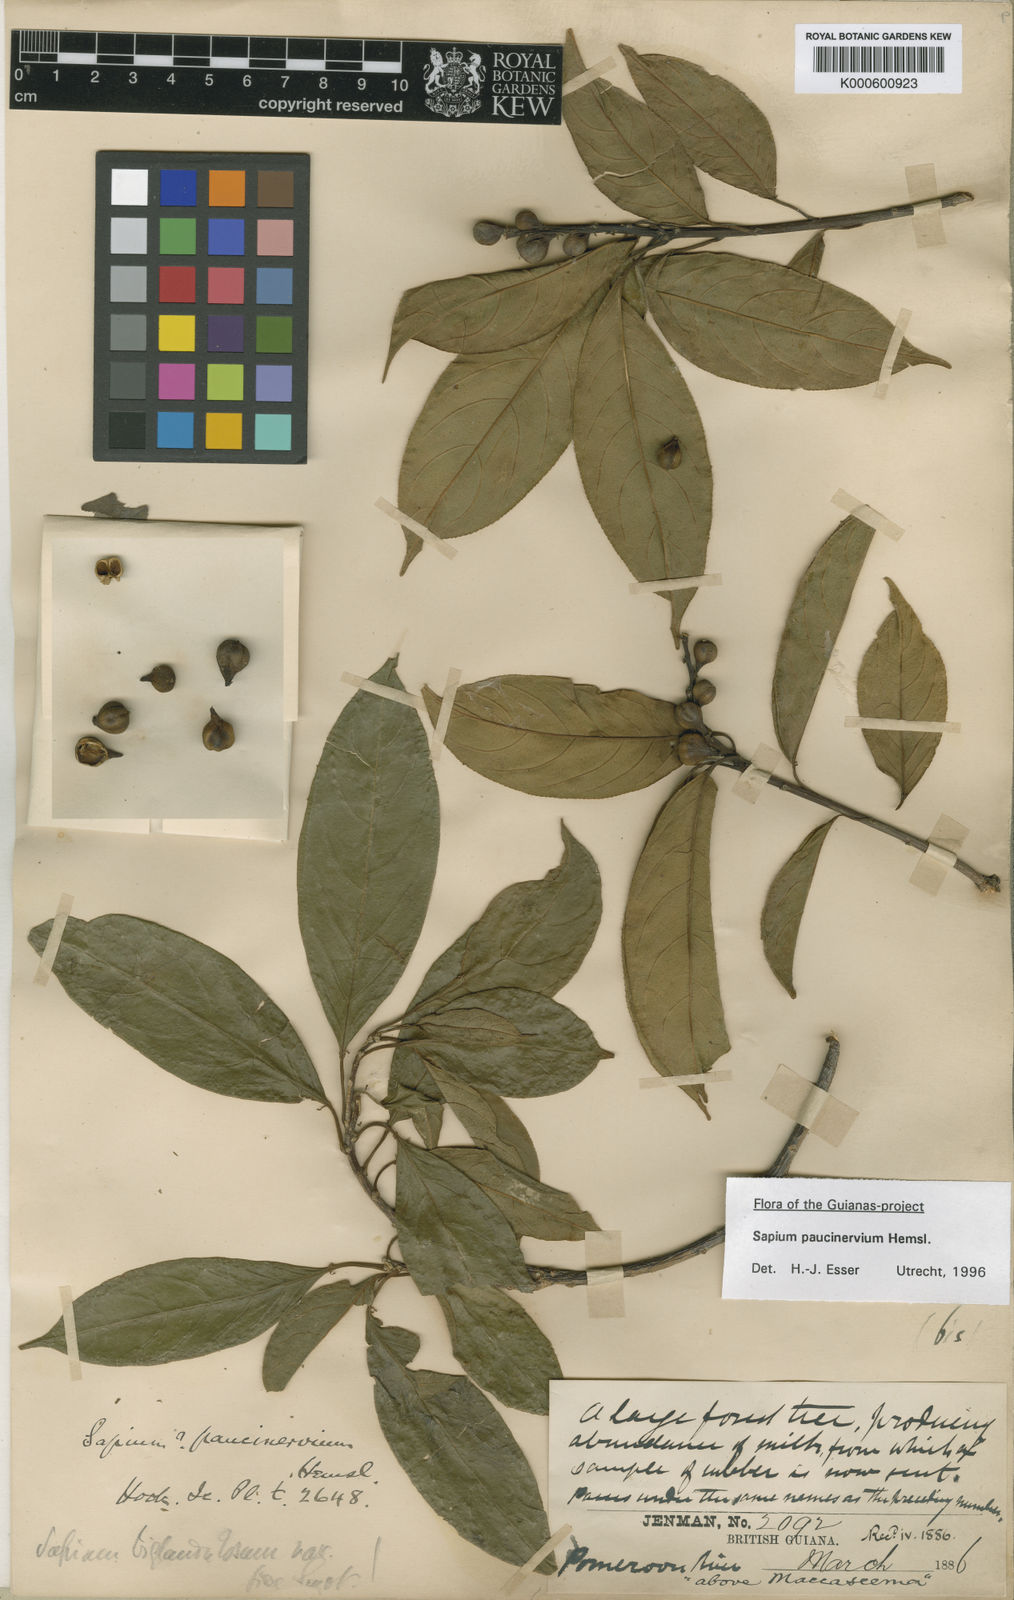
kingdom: Plantae
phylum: Tracheophyta
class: Magnoliopsida
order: Malpighiales
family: Euphorbiaceae
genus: Sapium
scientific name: Sapium paucinervium
